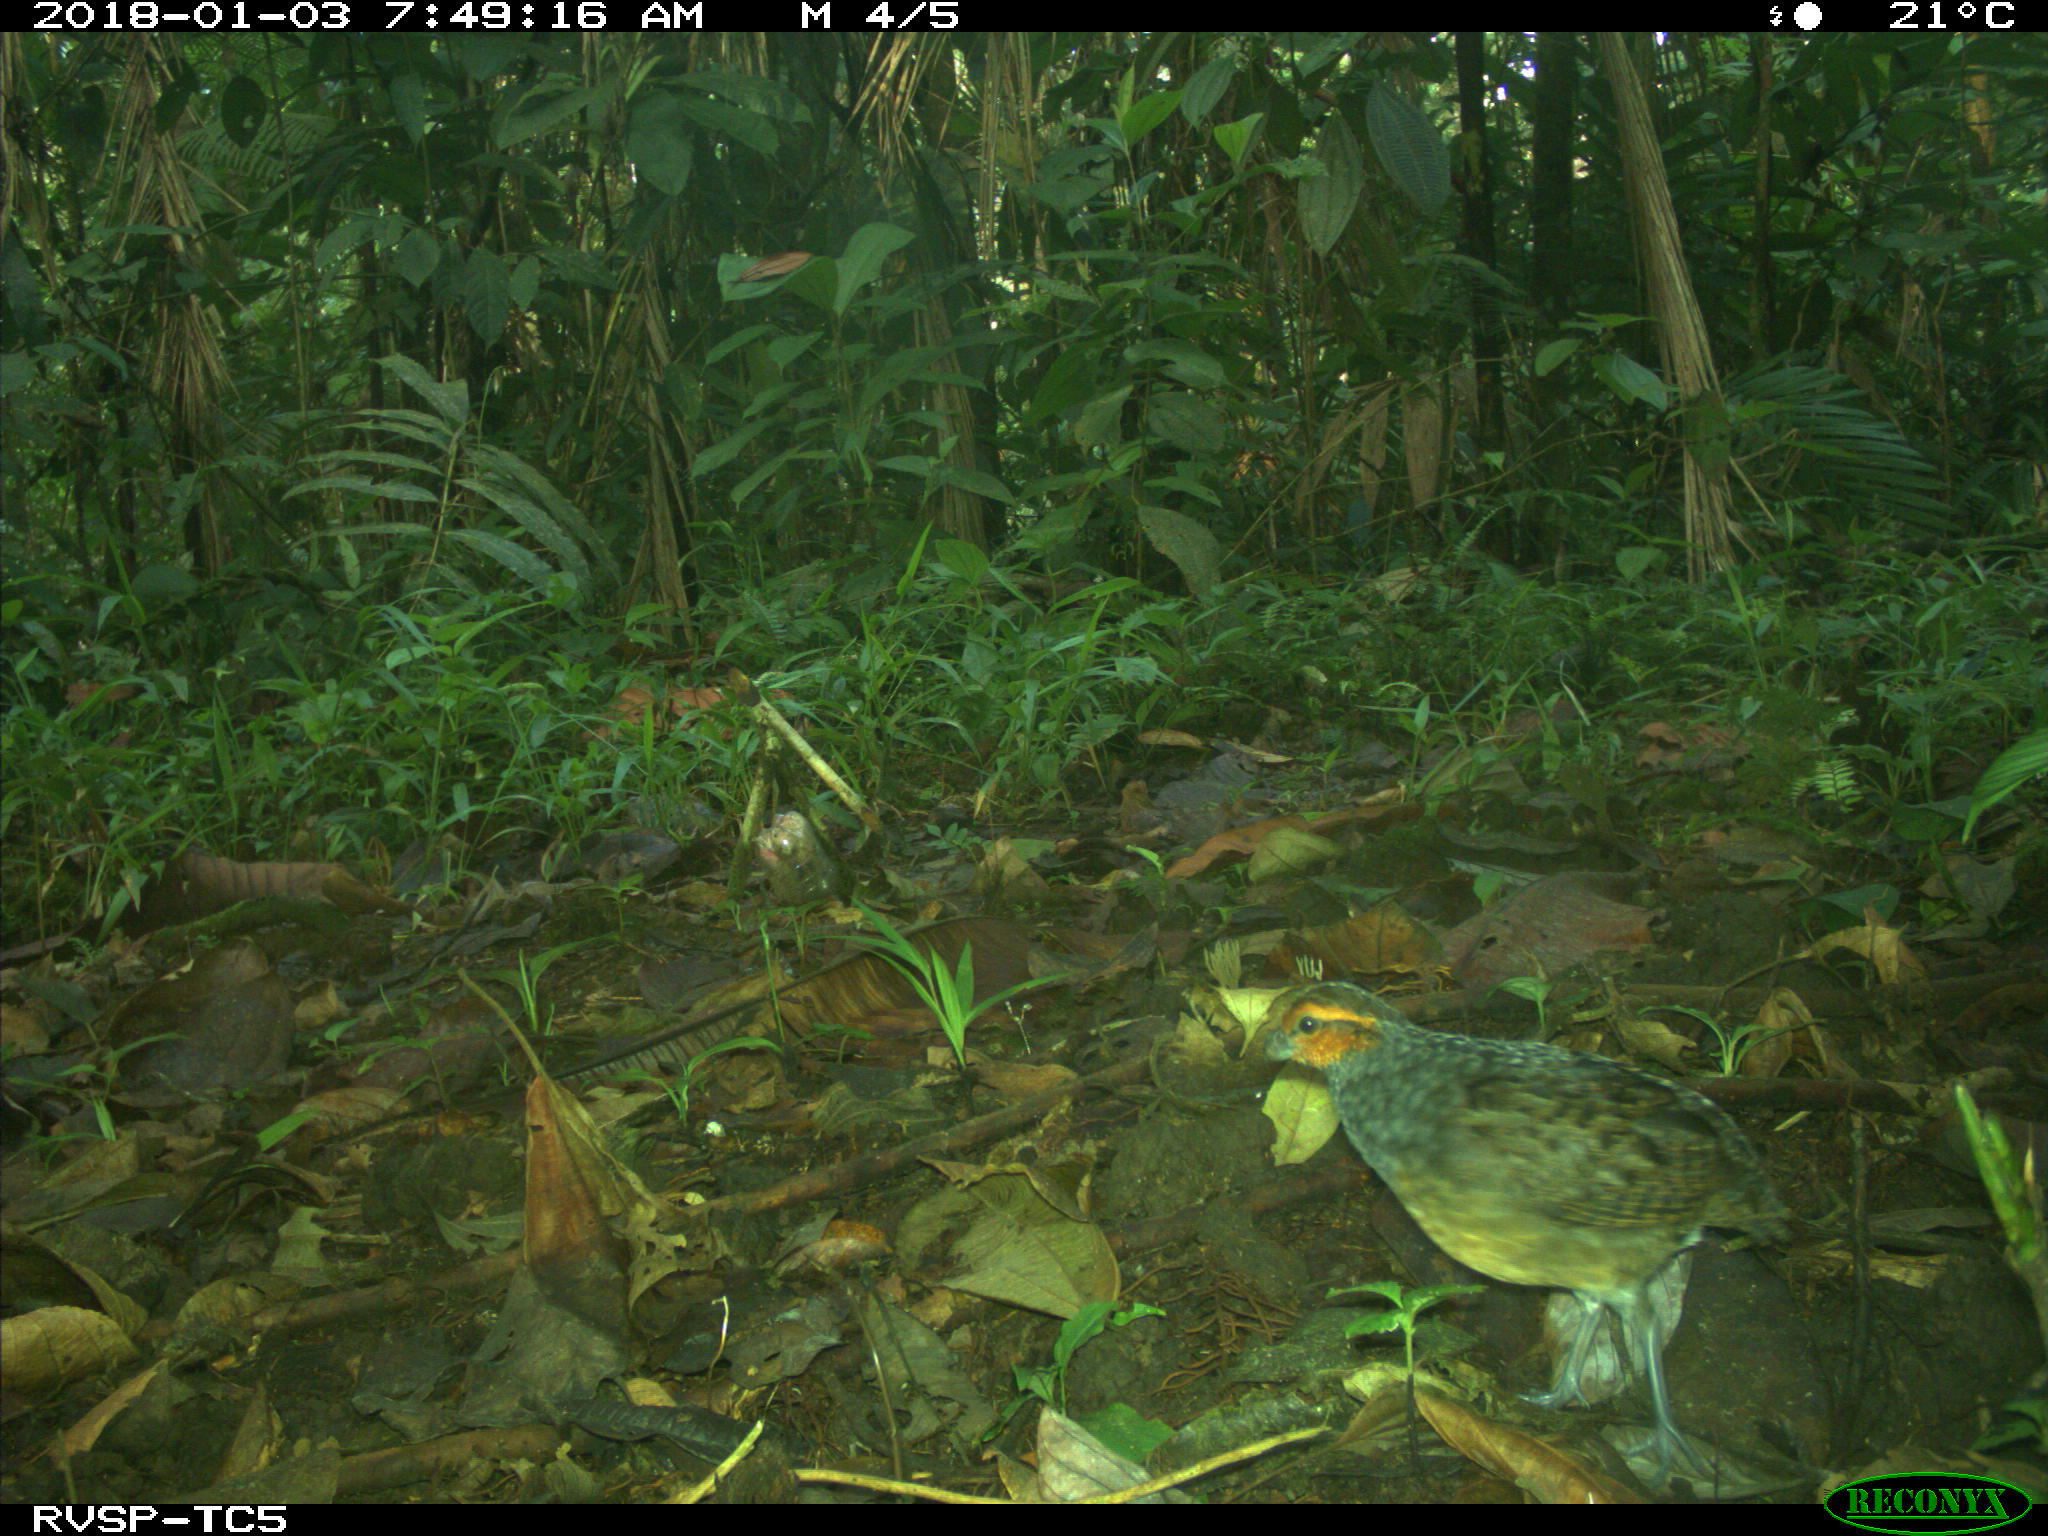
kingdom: Animalia
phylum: Chordata
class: Aves
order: Galliformes
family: Odontophoridae
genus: Odontophorus
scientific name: Odontophorus erythrops
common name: Rufous-fronted wood quail
